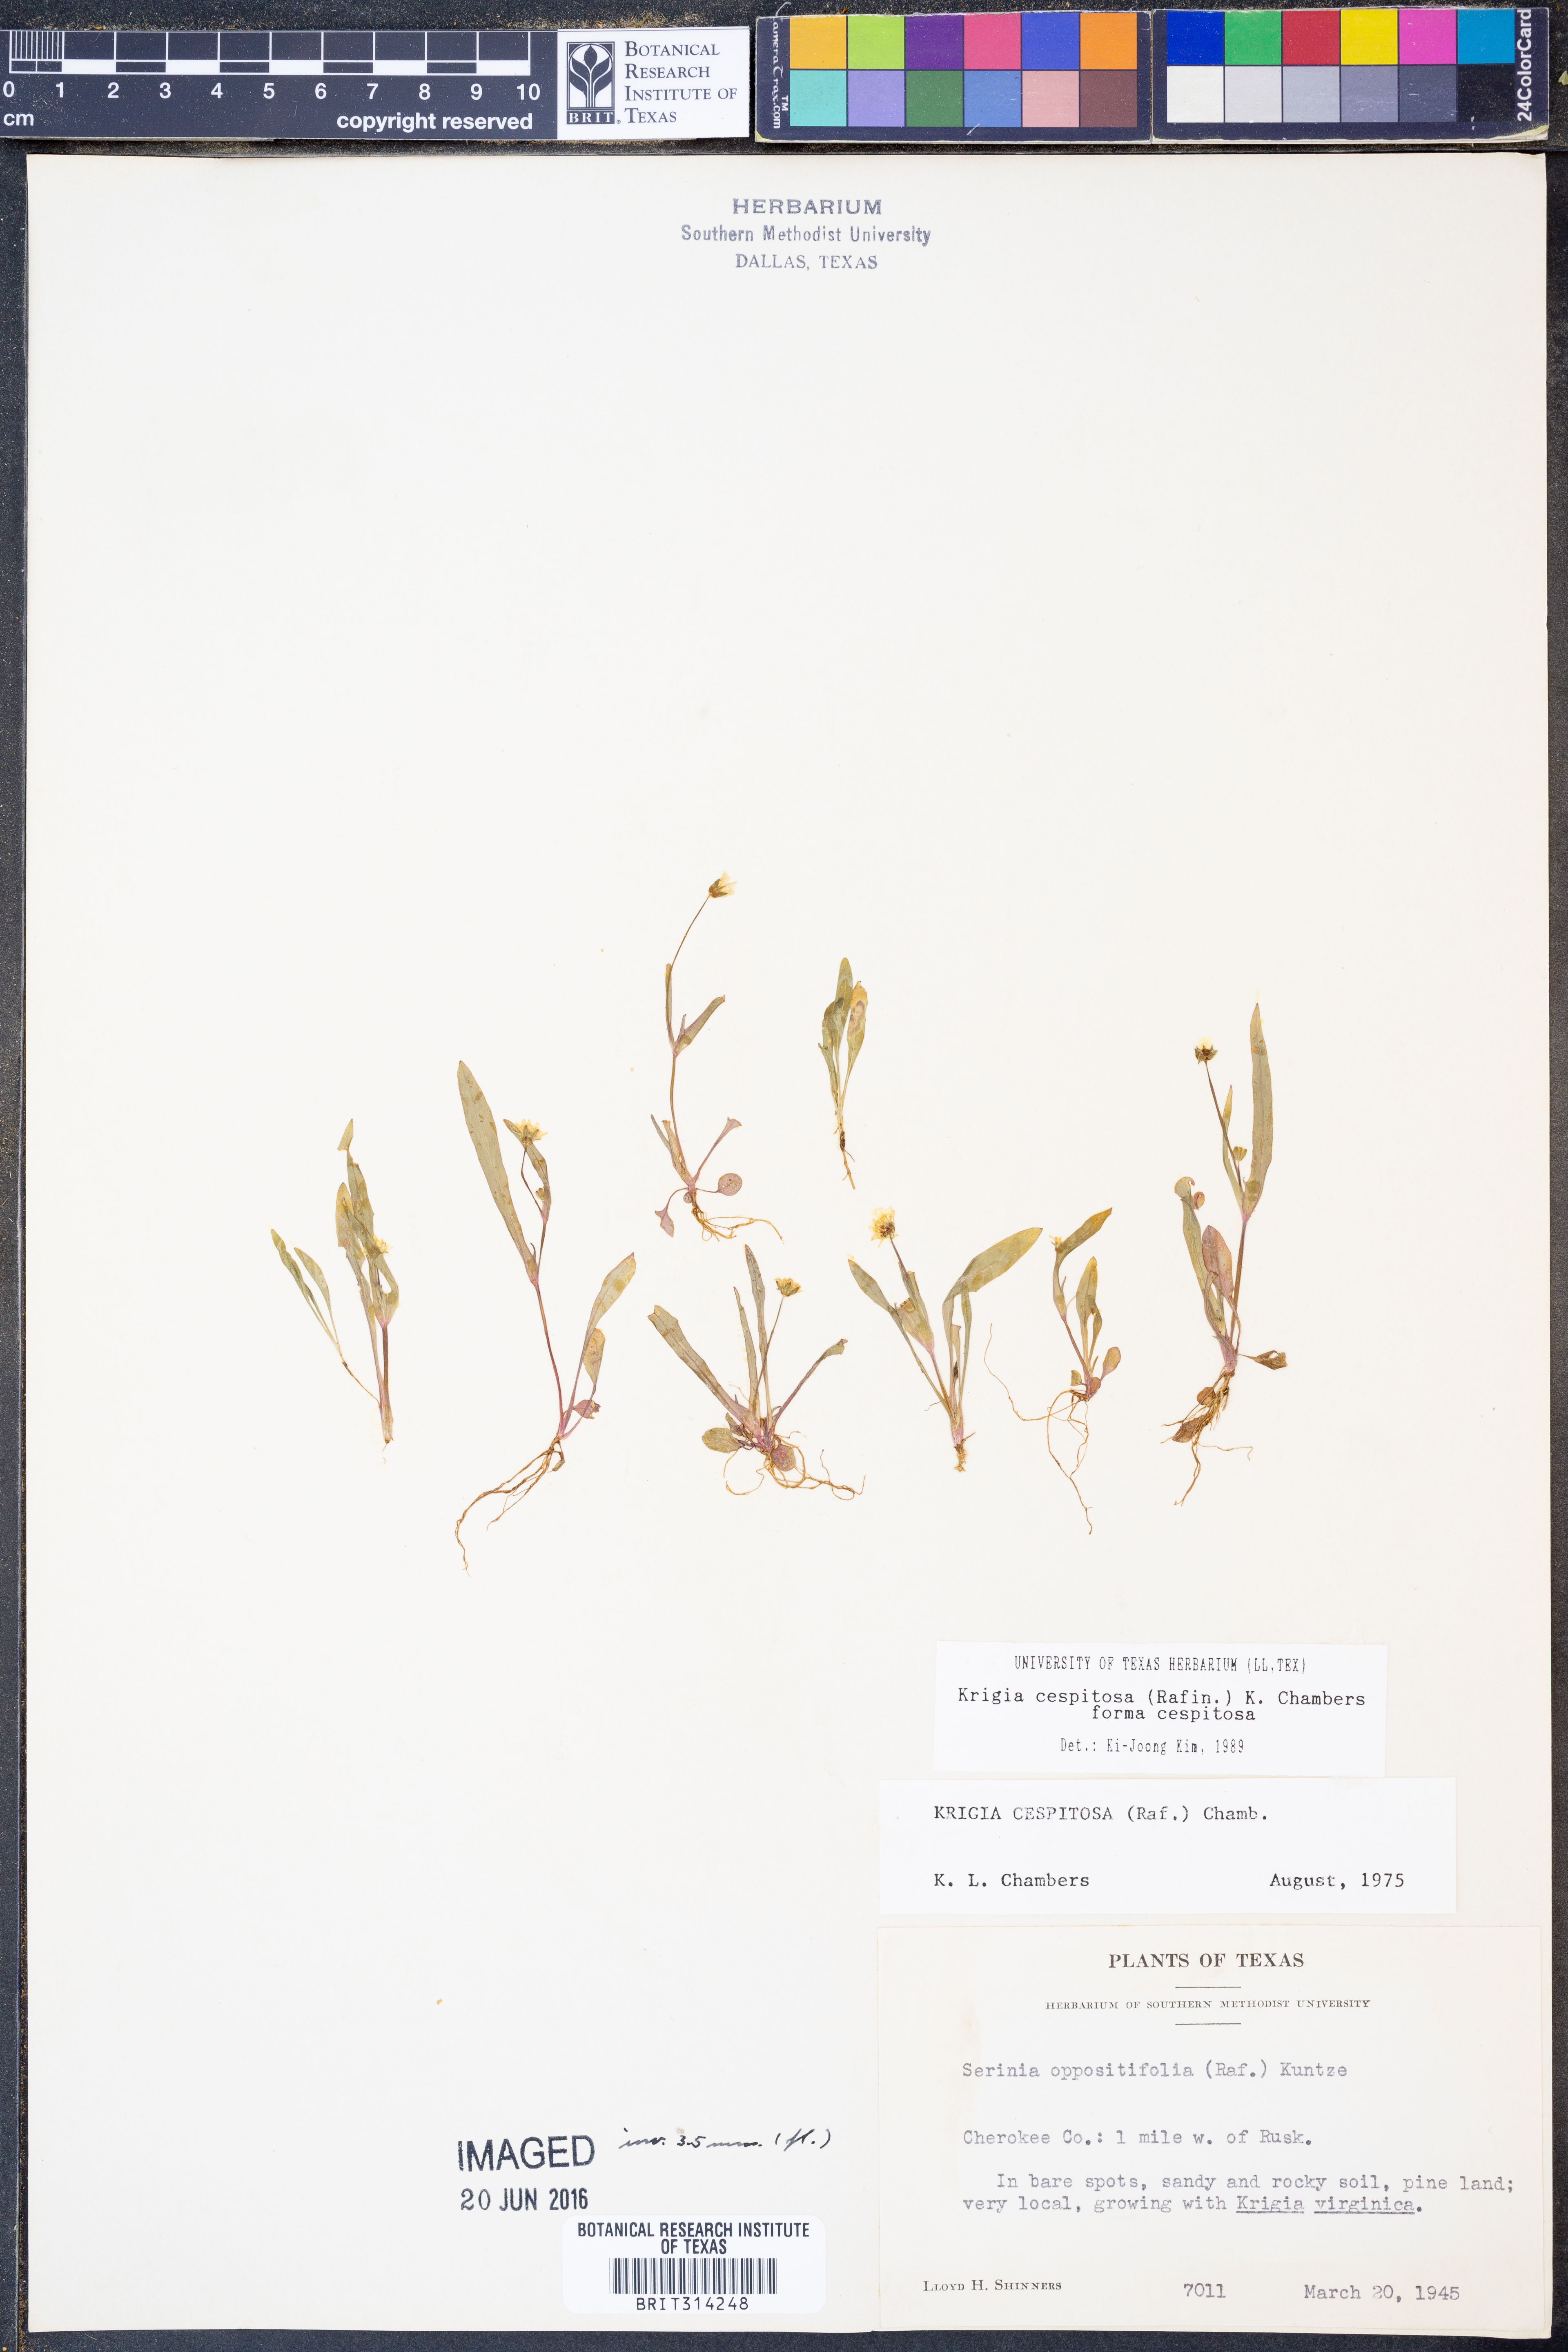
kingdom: Plantae
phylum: Tracheophyta
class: Magnoliopsida
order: Asterales
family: Asteraceae
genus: Krigia
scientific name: Krigia cespitosa
